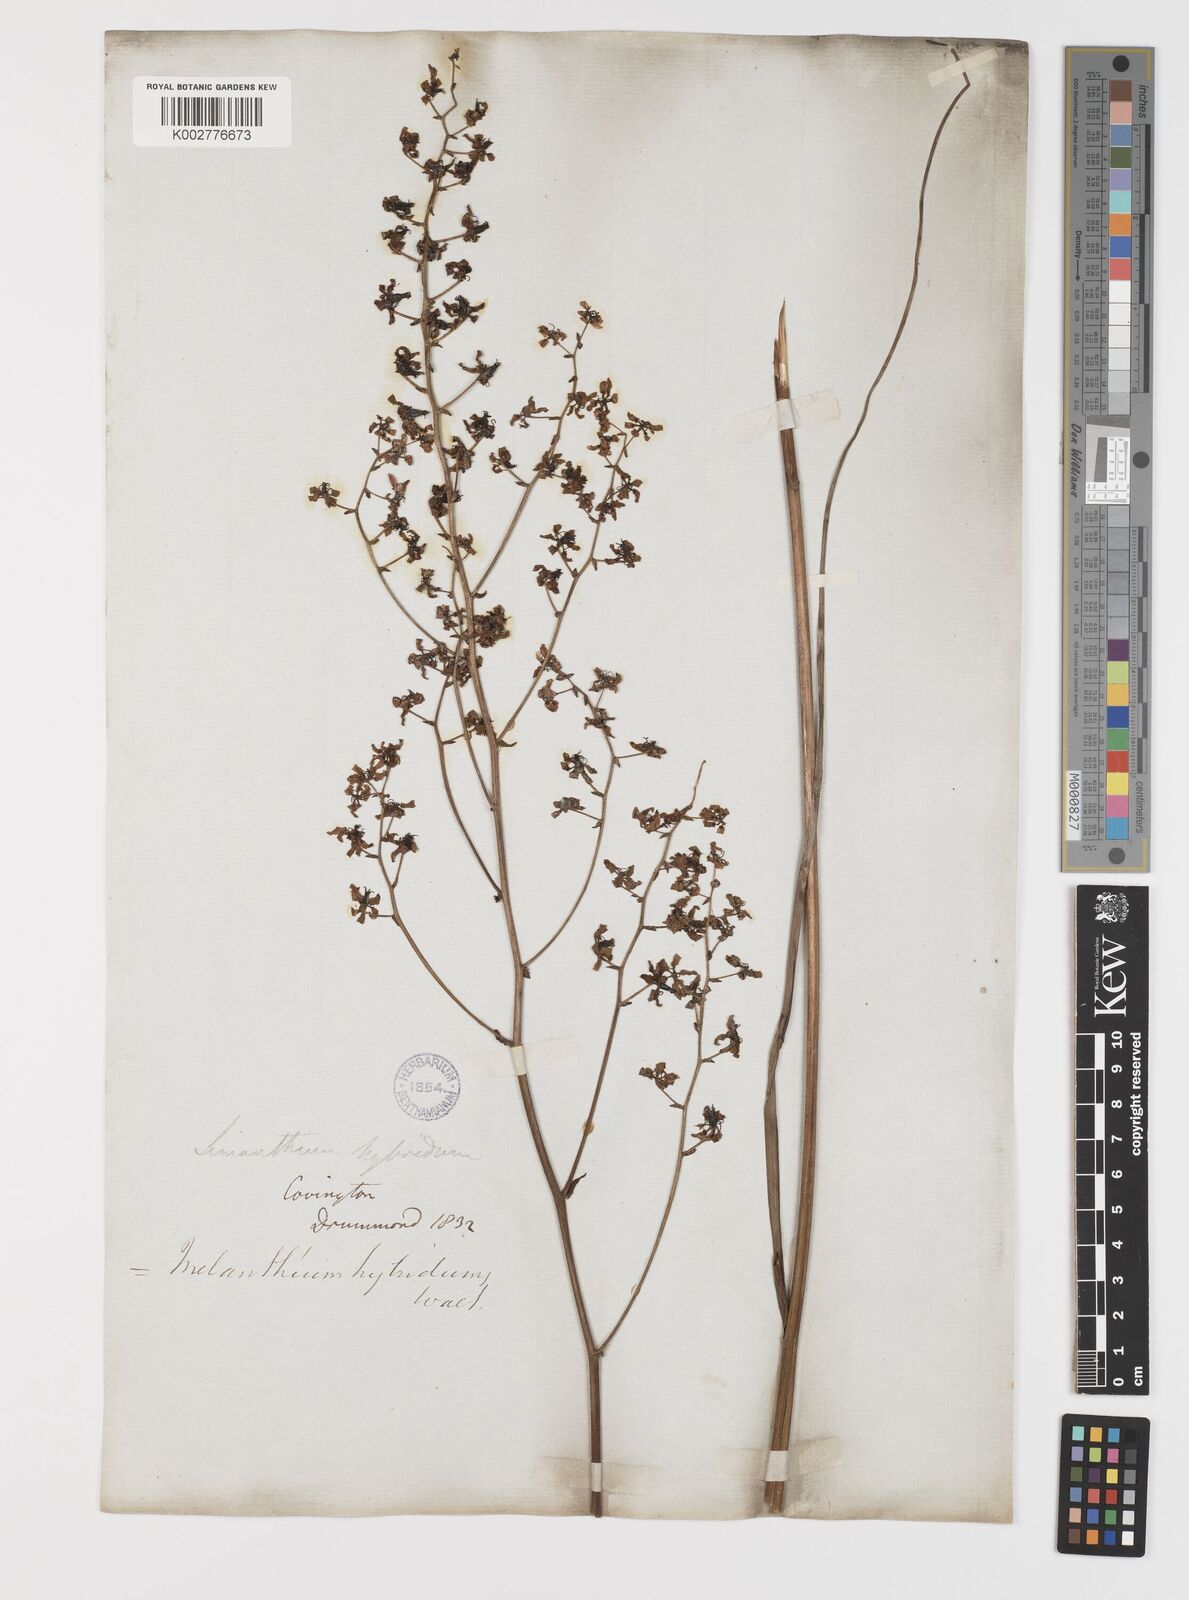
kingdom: Plantae
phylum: Tracheophyta
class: Liliopsida
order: Liliales
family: Melanthiaceae
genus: Melanthium
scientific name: Melanthium hybridum
